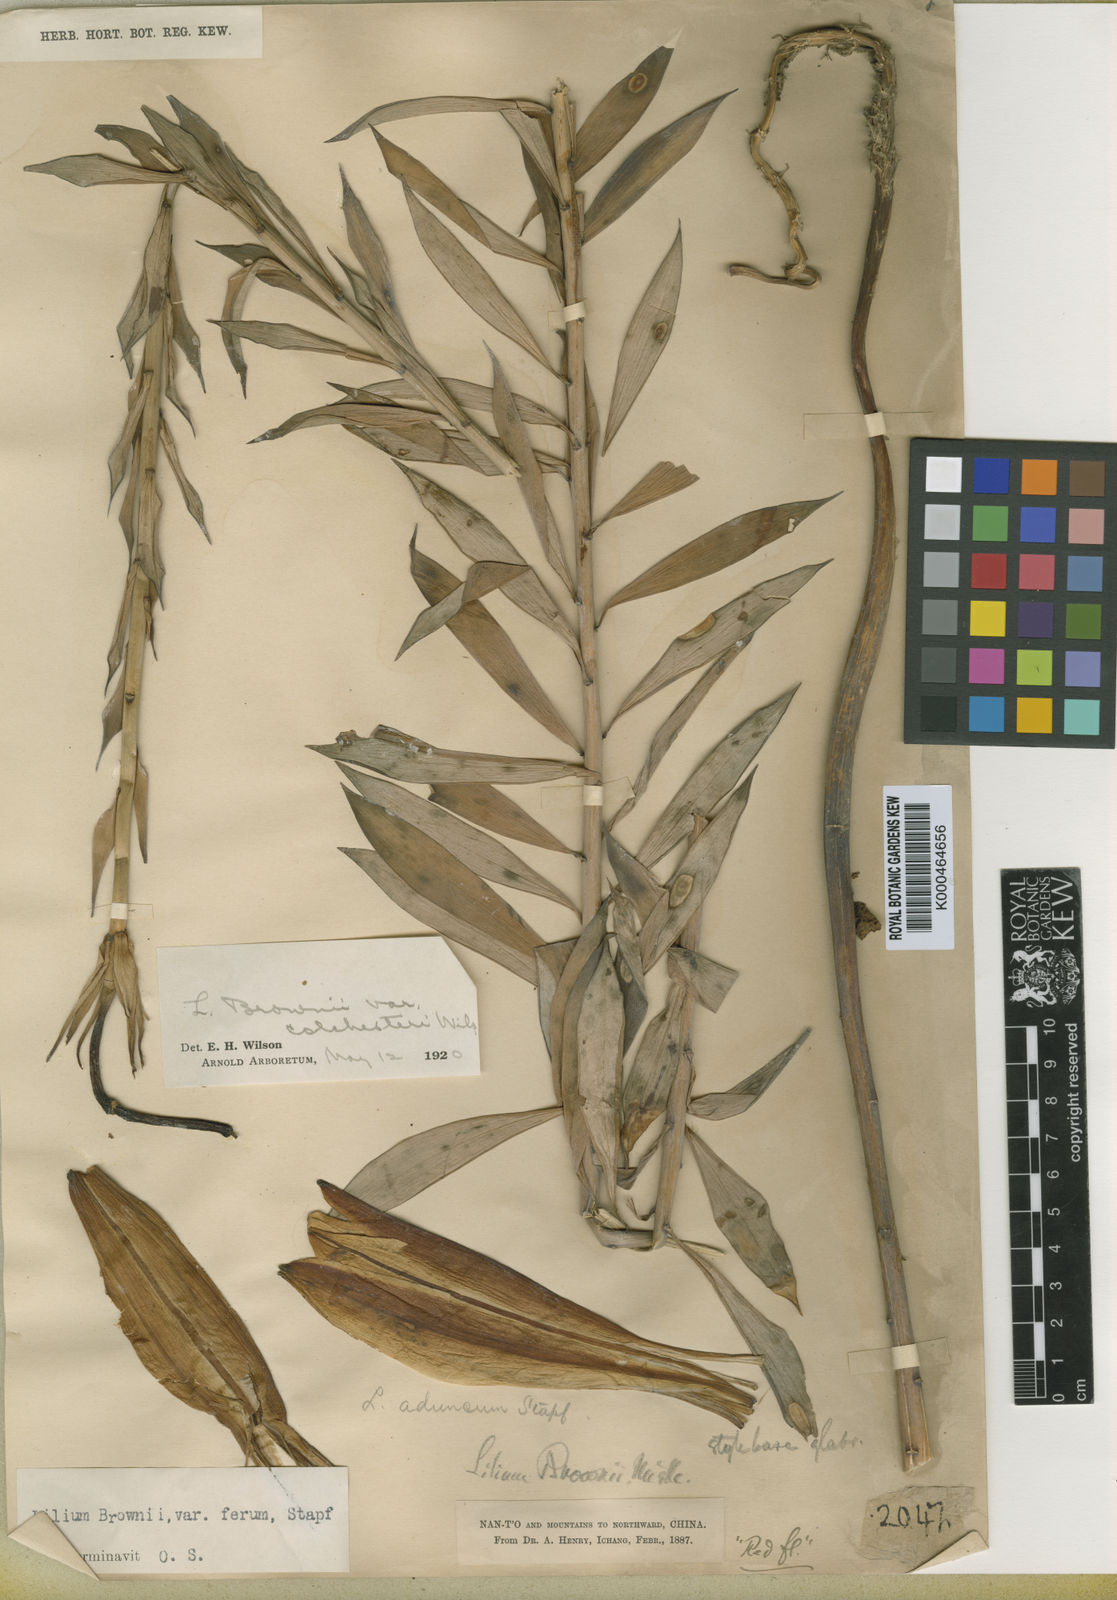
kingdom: Plantae
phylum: Tracheophyta
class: Liliopsida
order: Liliales
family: Liliaceae
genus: Lilium
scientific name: Lilium
